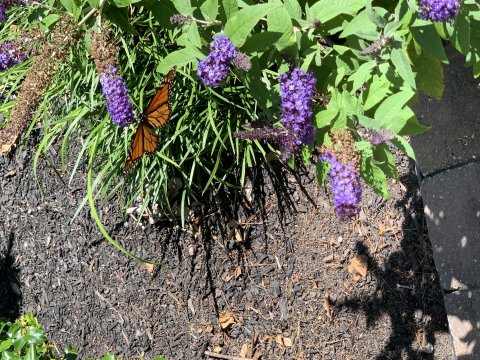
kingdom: Animalia
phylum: Arthropoda
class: Insecta
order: Lepidoptera
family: Nymphalidae
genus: Danaus
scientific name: Danaus plexippus
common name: Monarch
